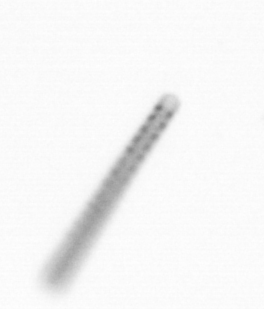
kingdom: Chromista
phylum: Ochrophyta
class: Bacillariophyceae
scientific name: Bacillariophyceae
